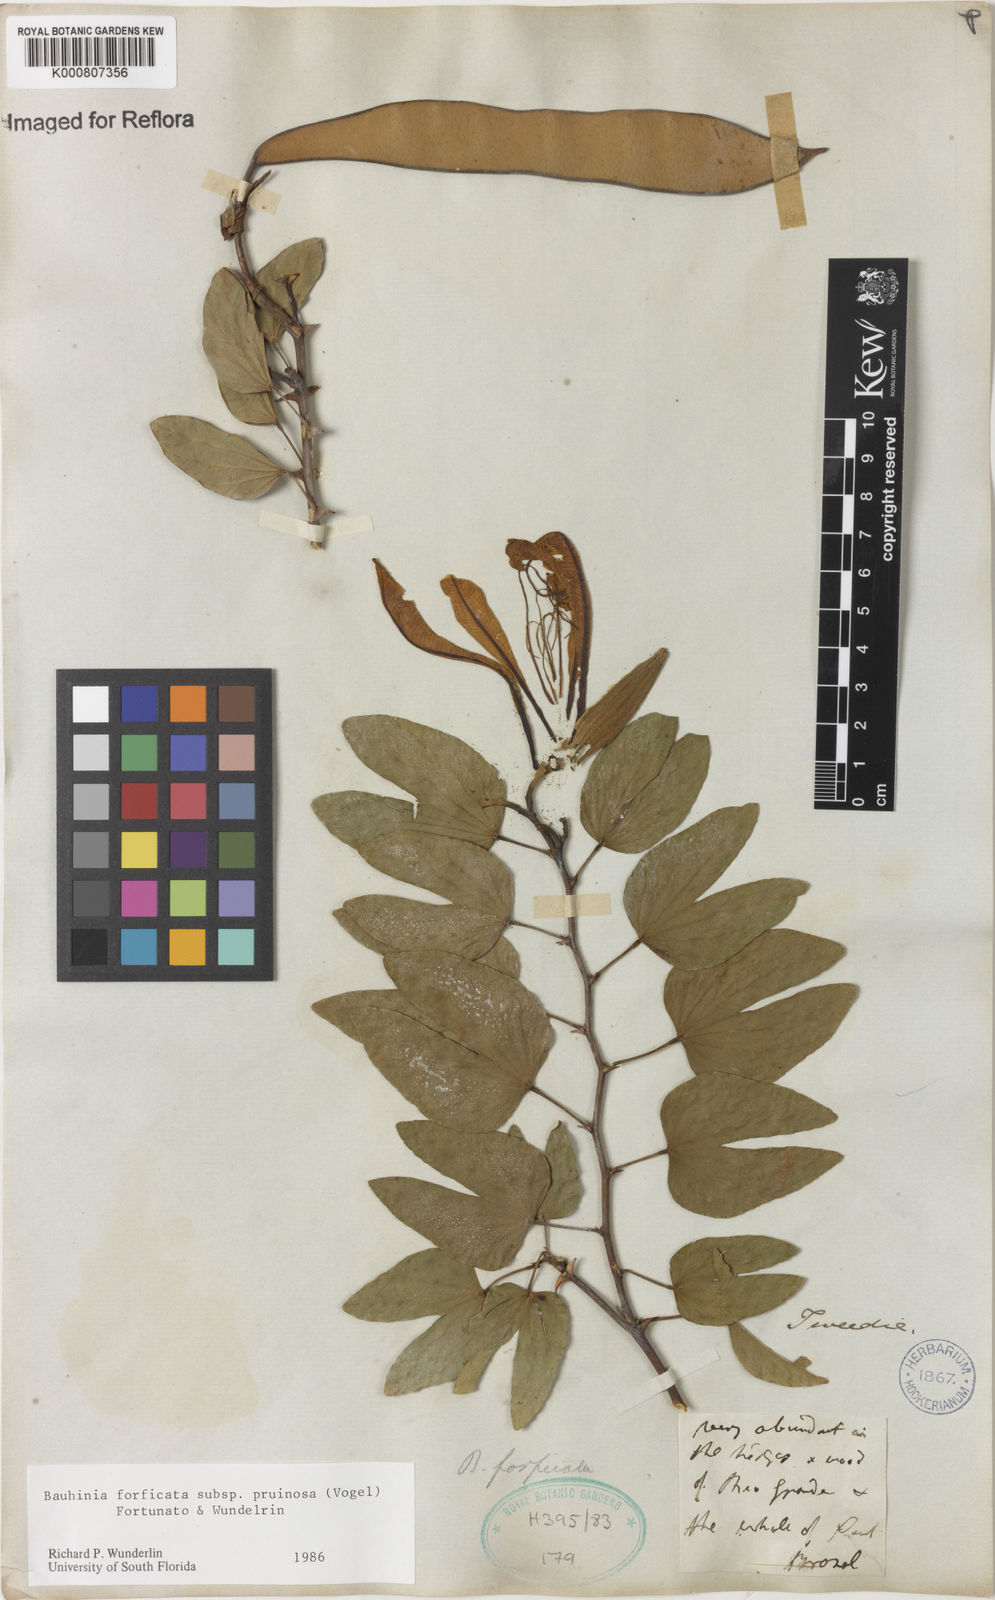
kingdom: Plantae
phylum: Tracheophyta
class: Magnoliopsida
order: Fabales
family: Fabaceae
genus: Bauhinia
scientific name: Bauhinia forficata
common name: Orchid tree
